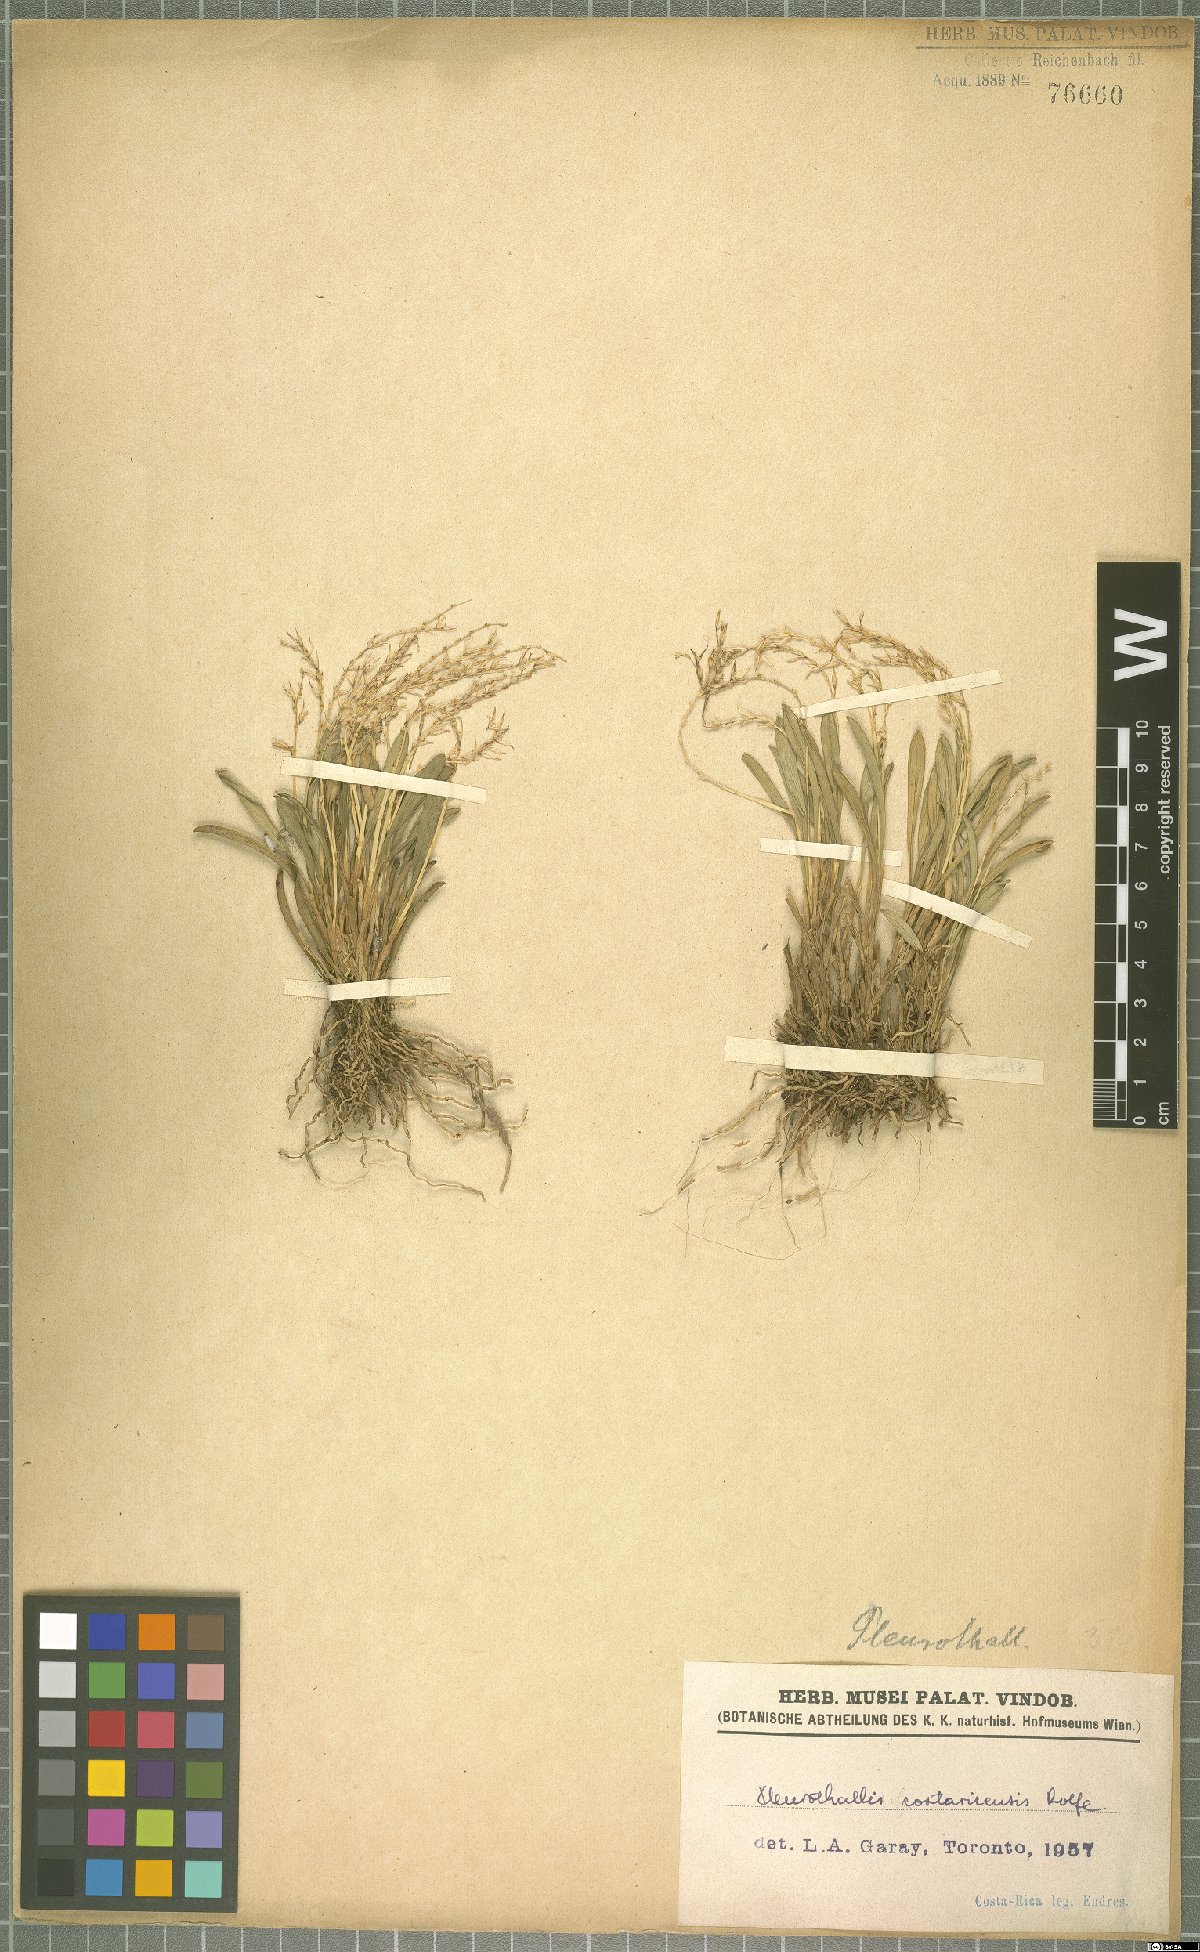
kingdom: Plantae
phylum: Tracheophyta
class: Liliopsida
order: Asparagales
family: Orchidaceae
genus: Specklinia
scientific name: Specklinia costaricensis
